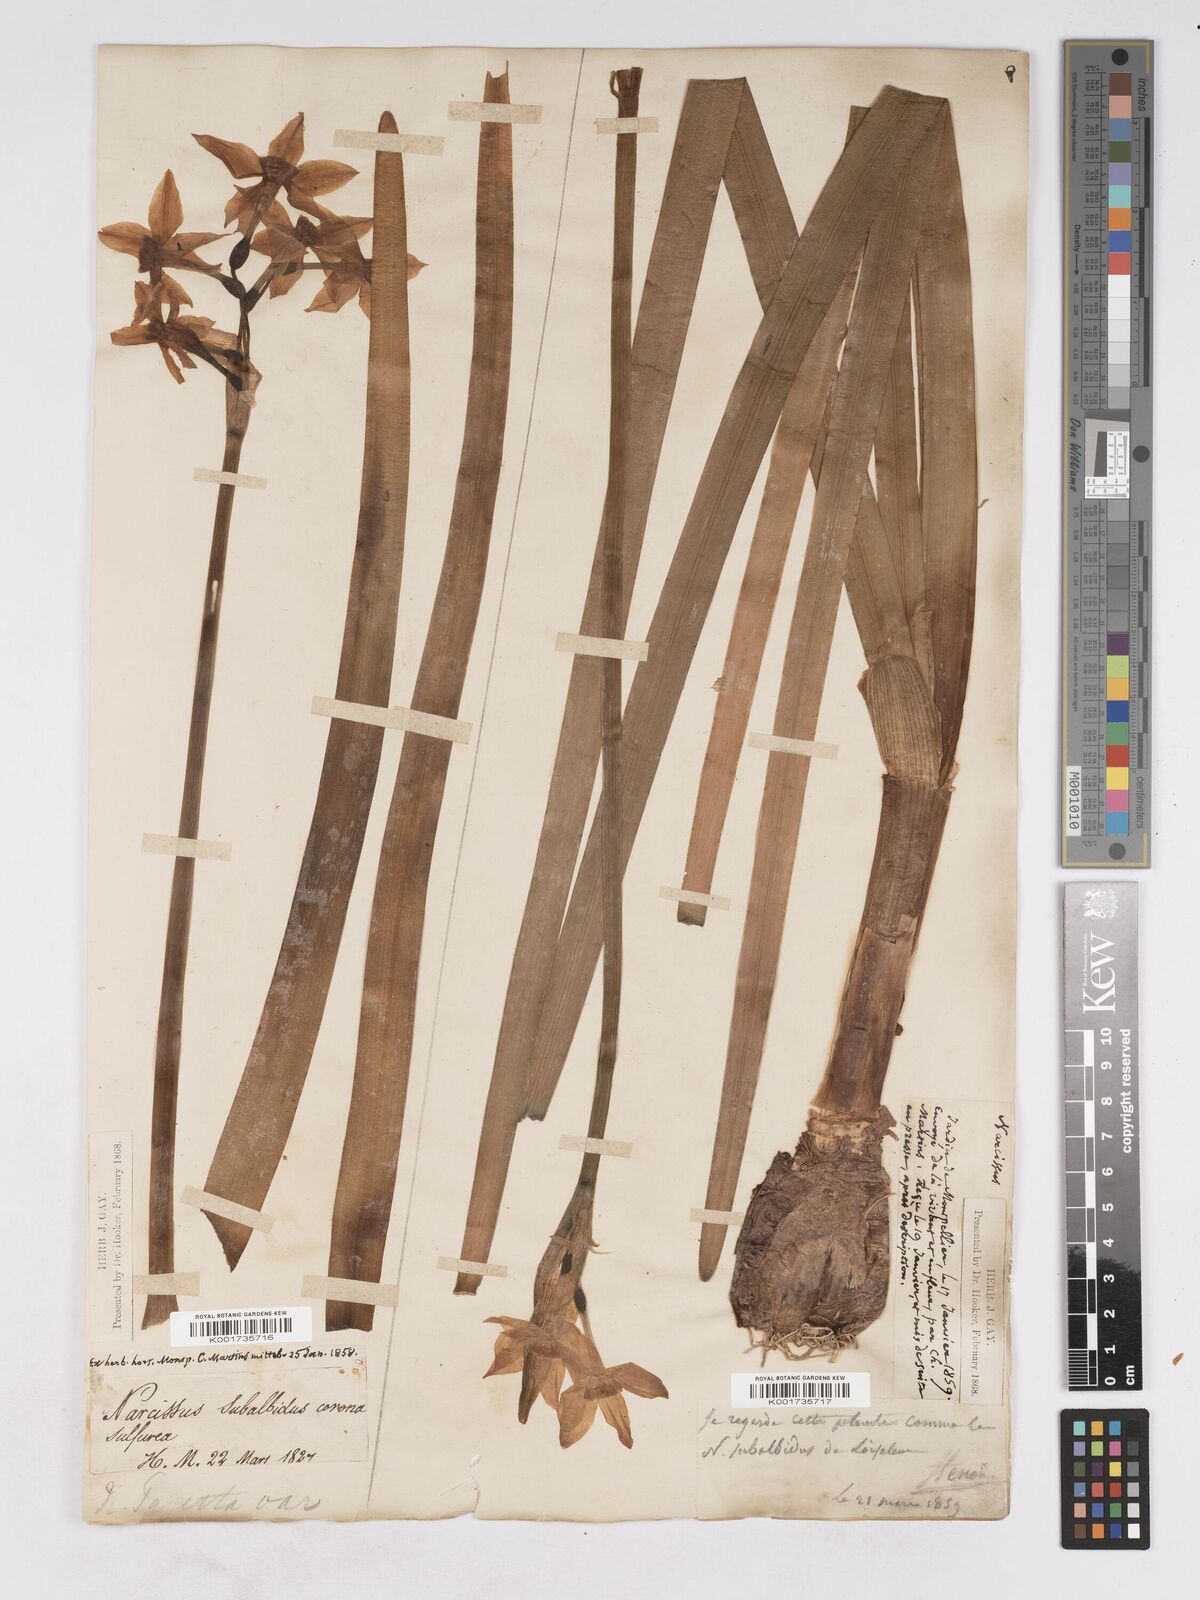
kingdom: Plantae
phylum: Tracheophyta
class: Liliopsida
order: Asparagales
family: Amaryllidaceae
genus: Narcissus
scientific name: Narcissus
